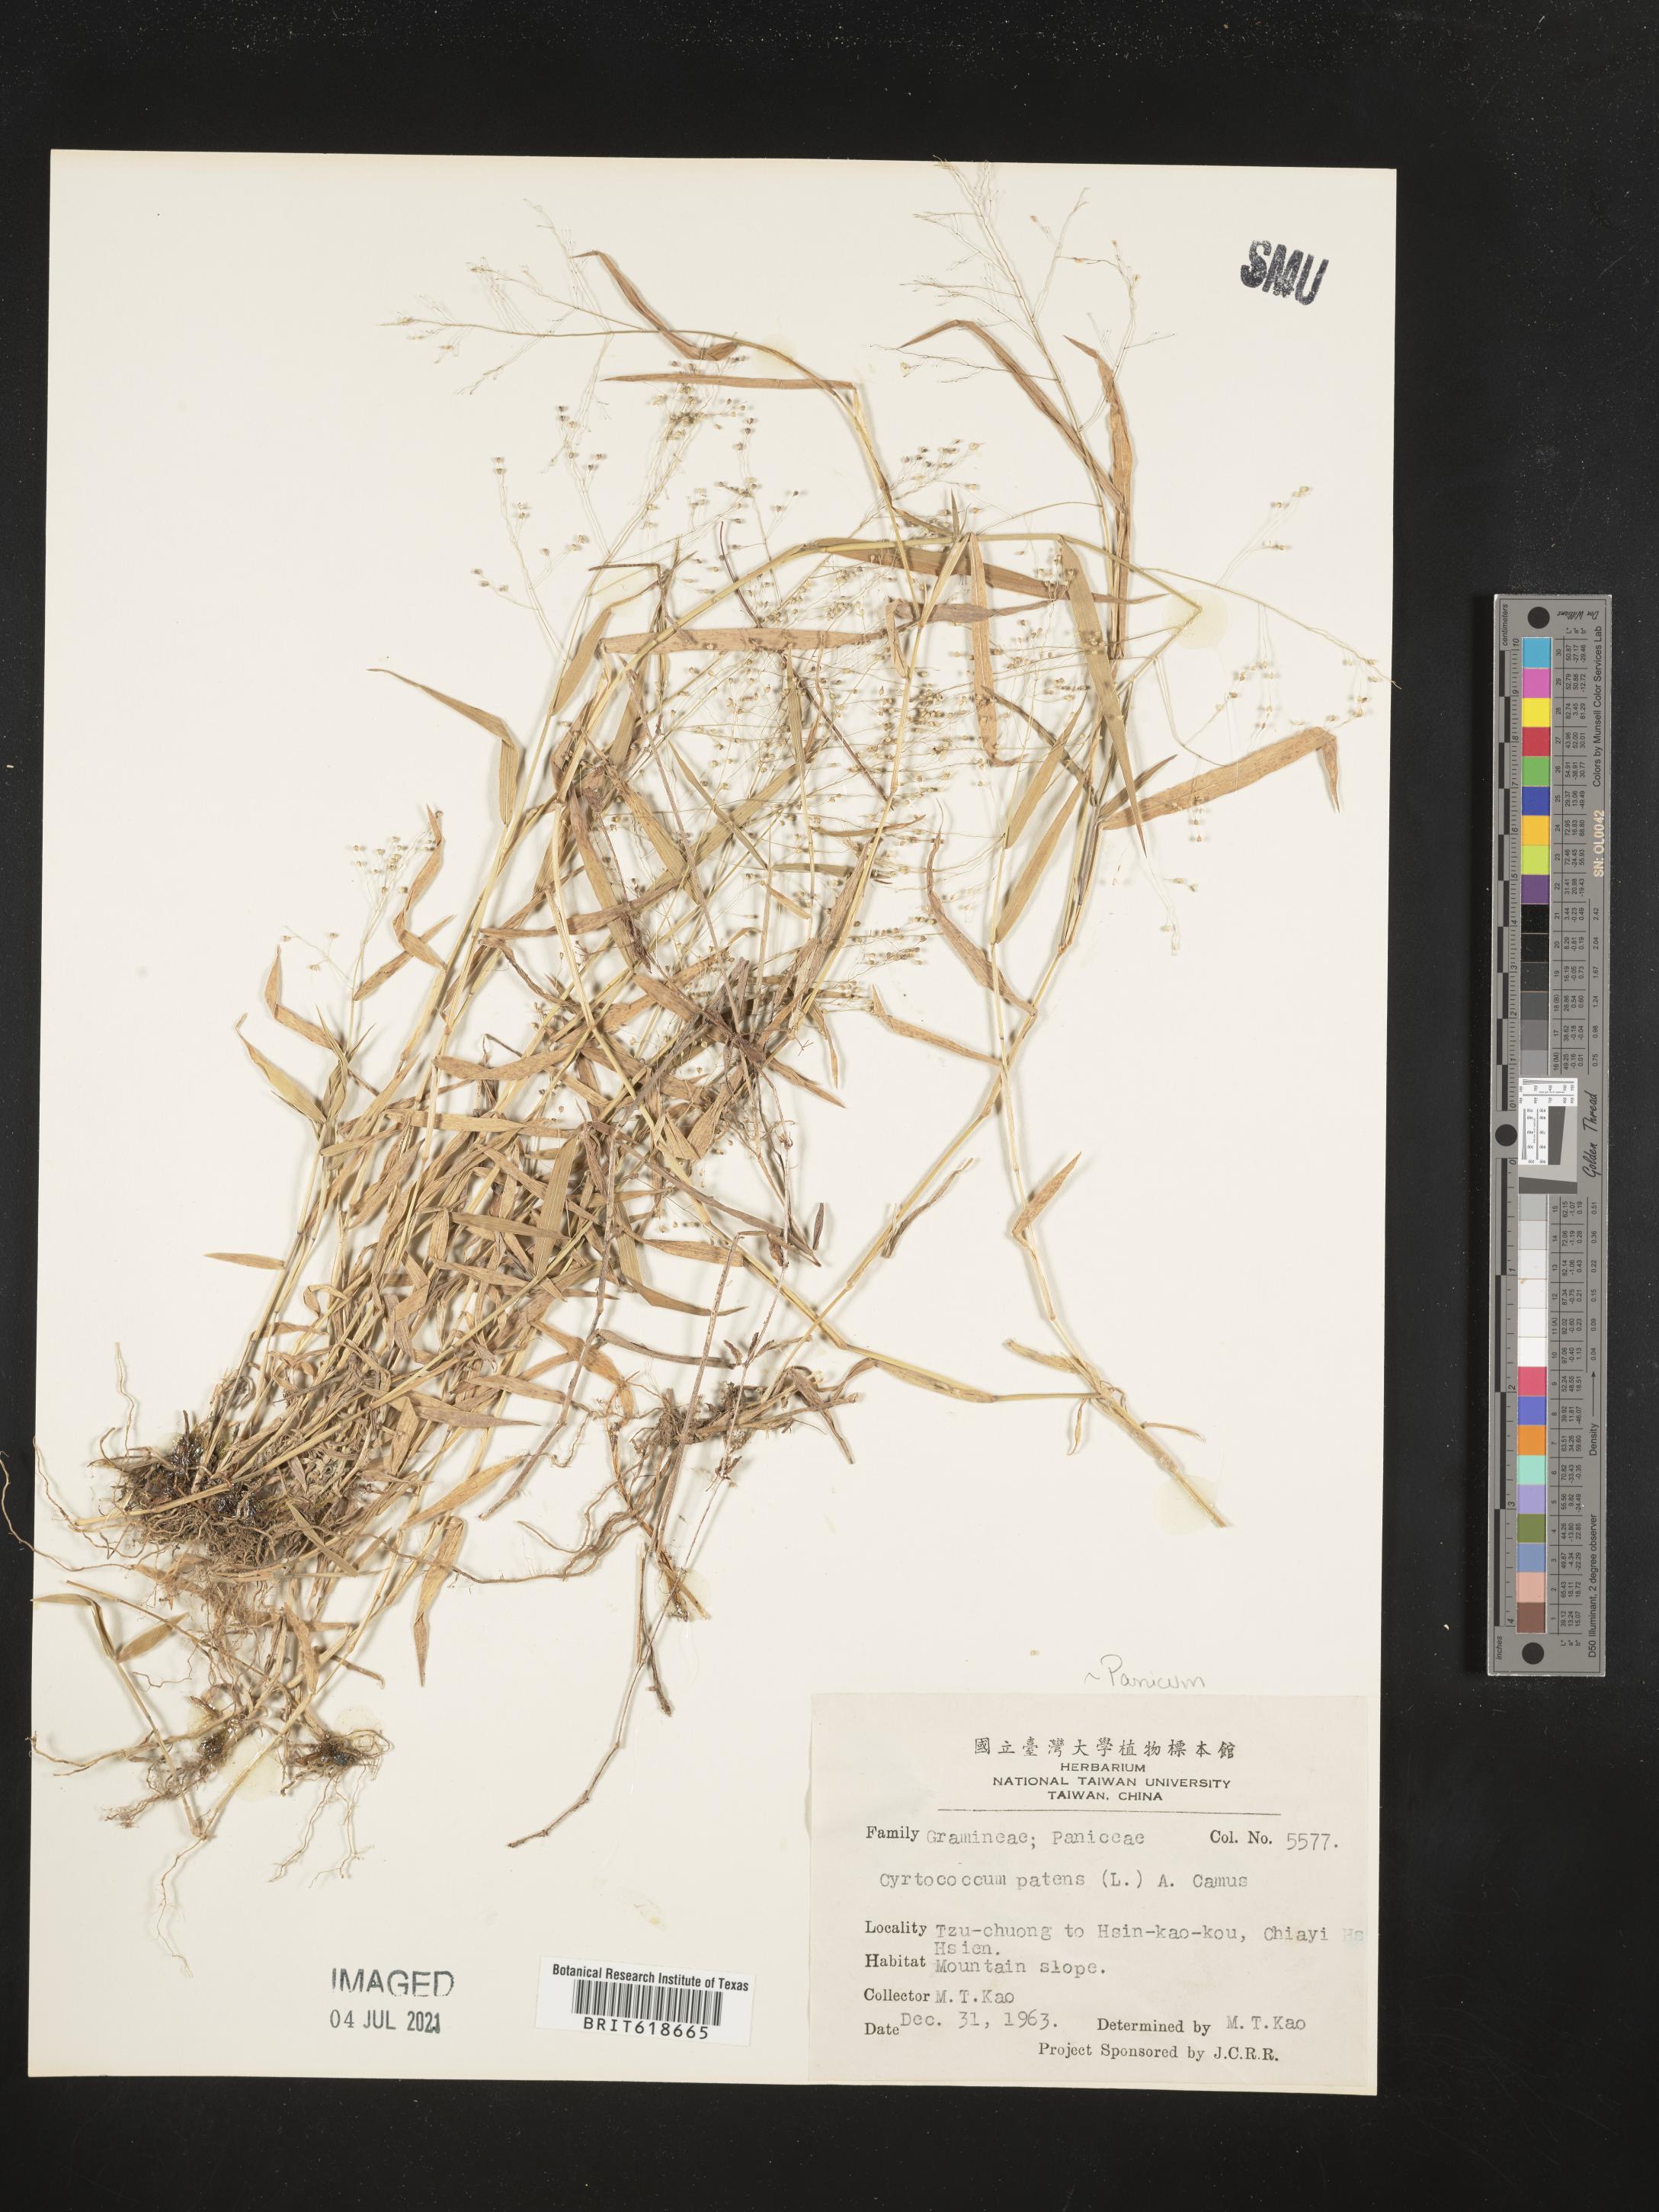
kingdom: Plantae
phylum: Tracheophyta
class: Liliopsida
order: Poales
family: Poaceae
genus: Cyrtococcum
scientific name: Cyrtococcum patens
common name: Broad-leaved bowgrass
